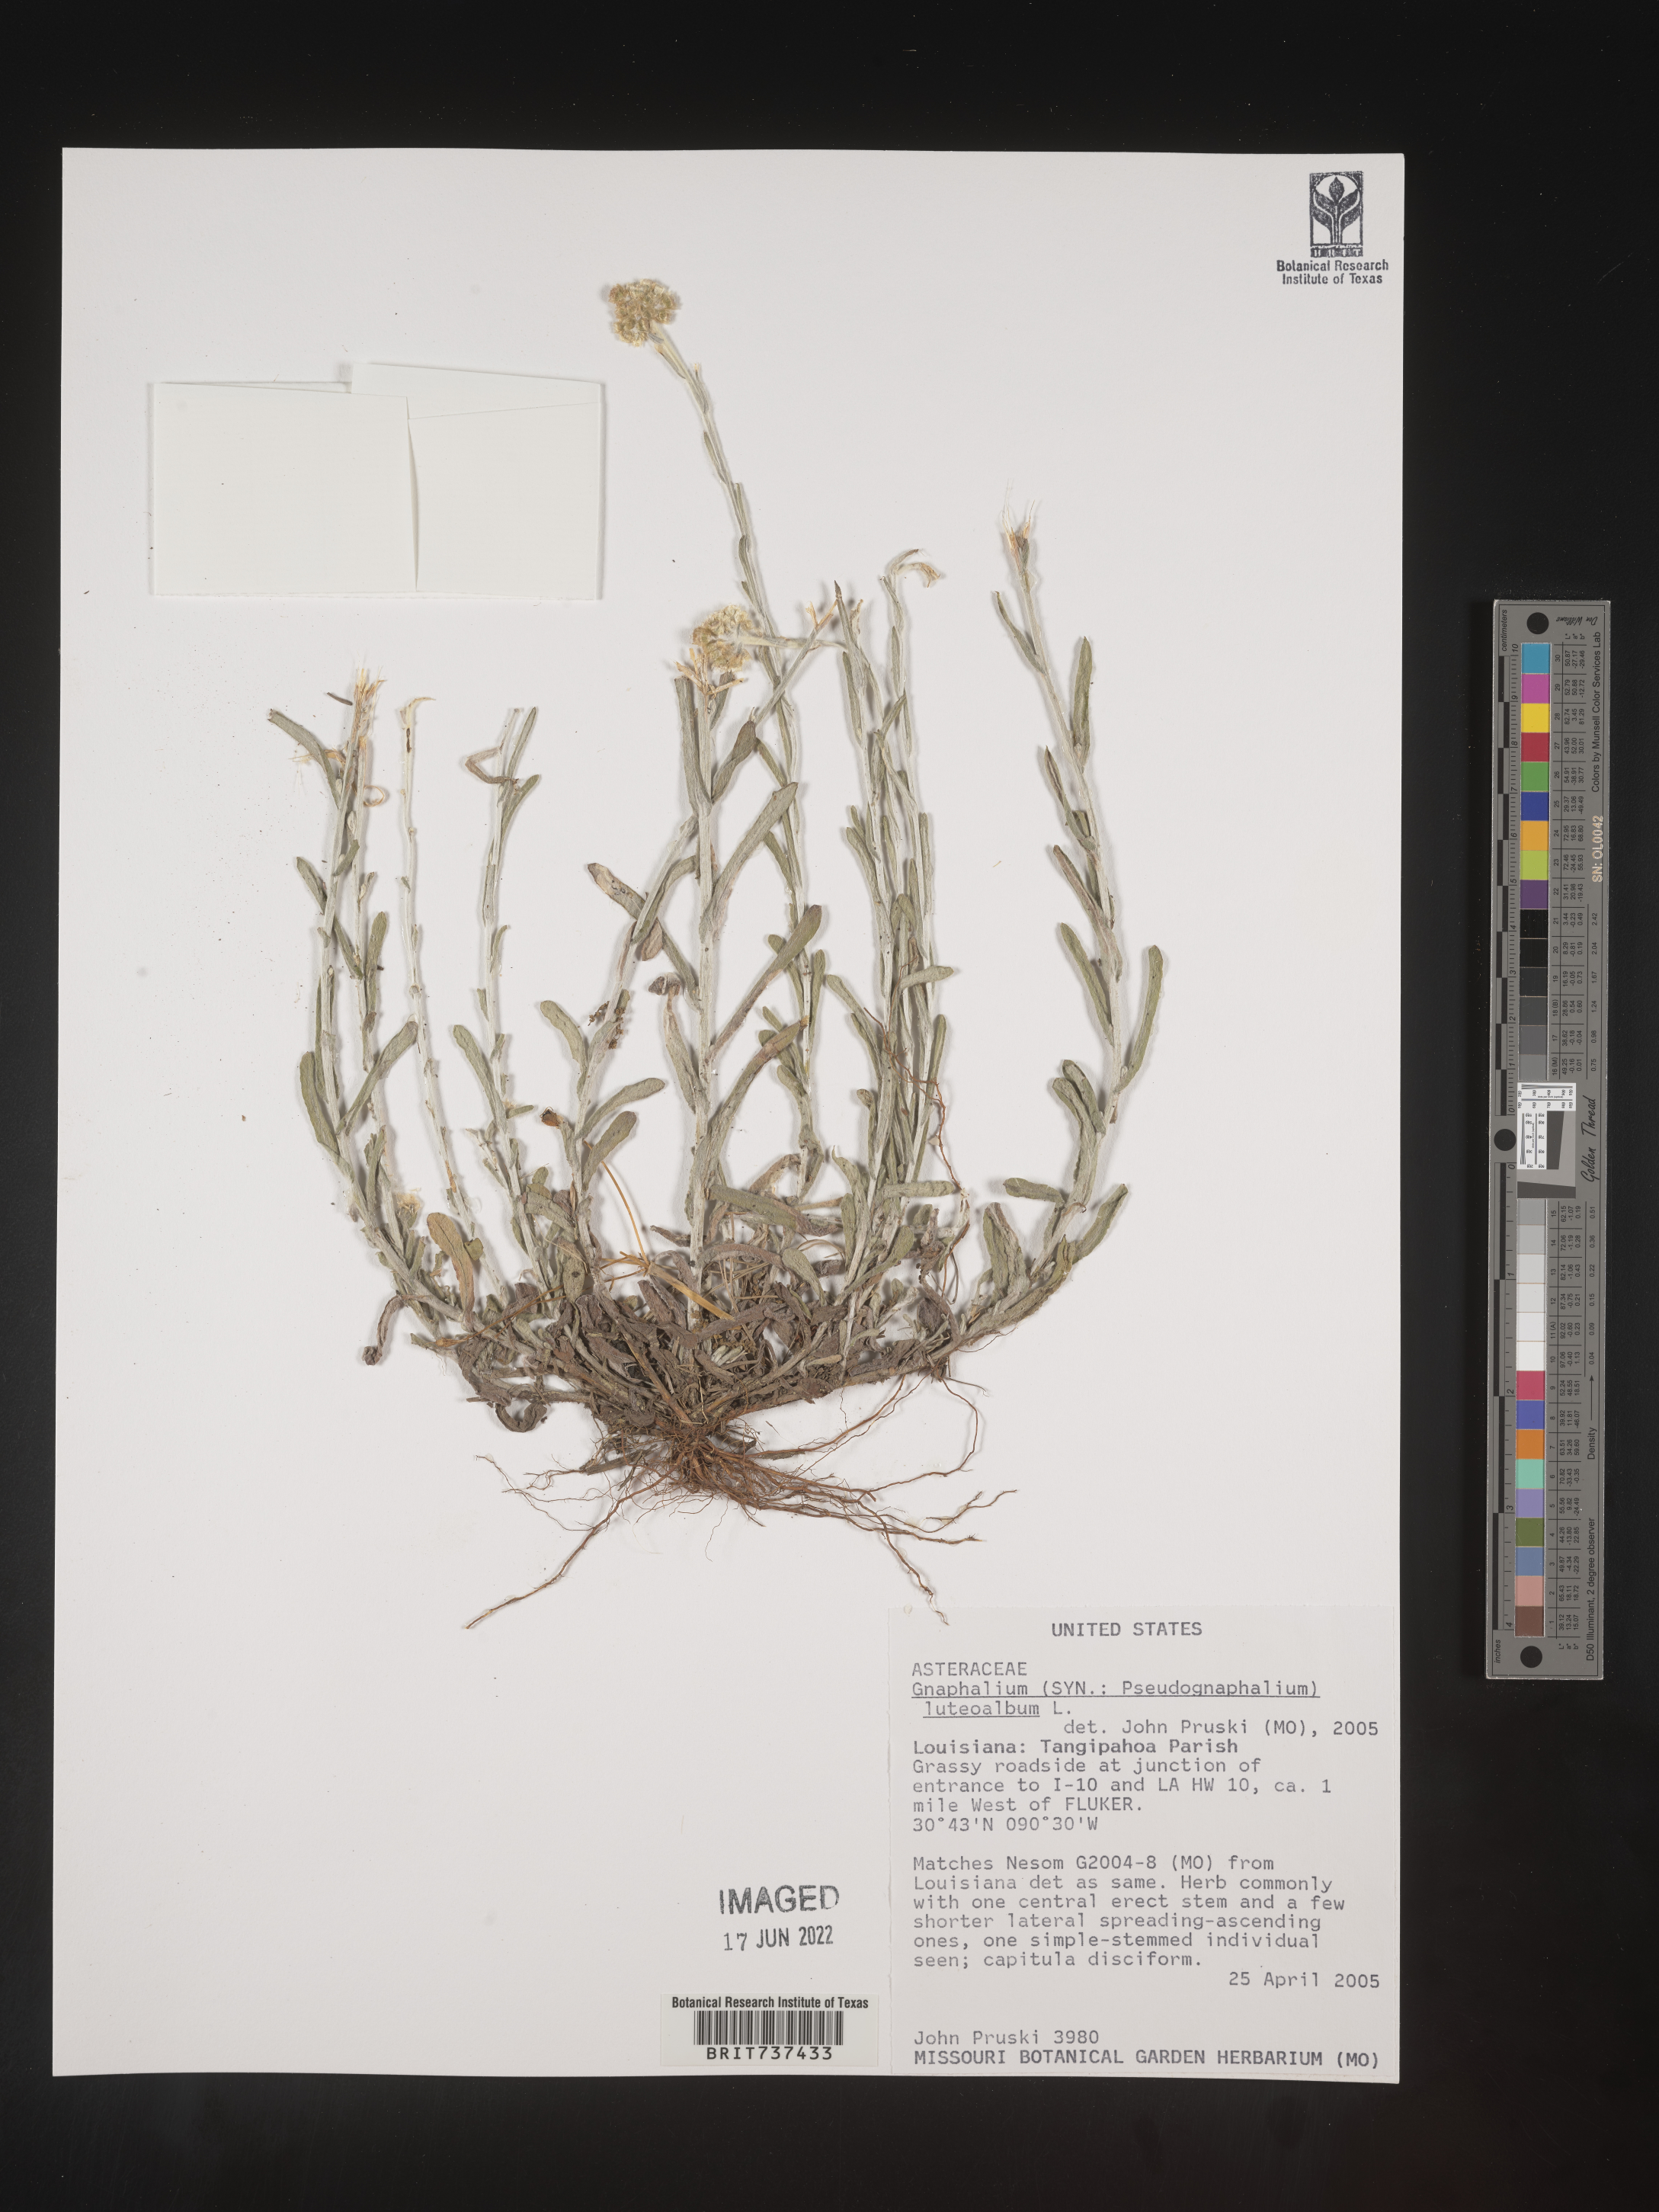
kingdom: Plantae
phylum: Tracheophyta
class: Magnoliopsida
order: Asterales
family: Asteraceae
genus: Helichrysum
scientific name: Helichrysum luteoalbum
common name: Daisy
